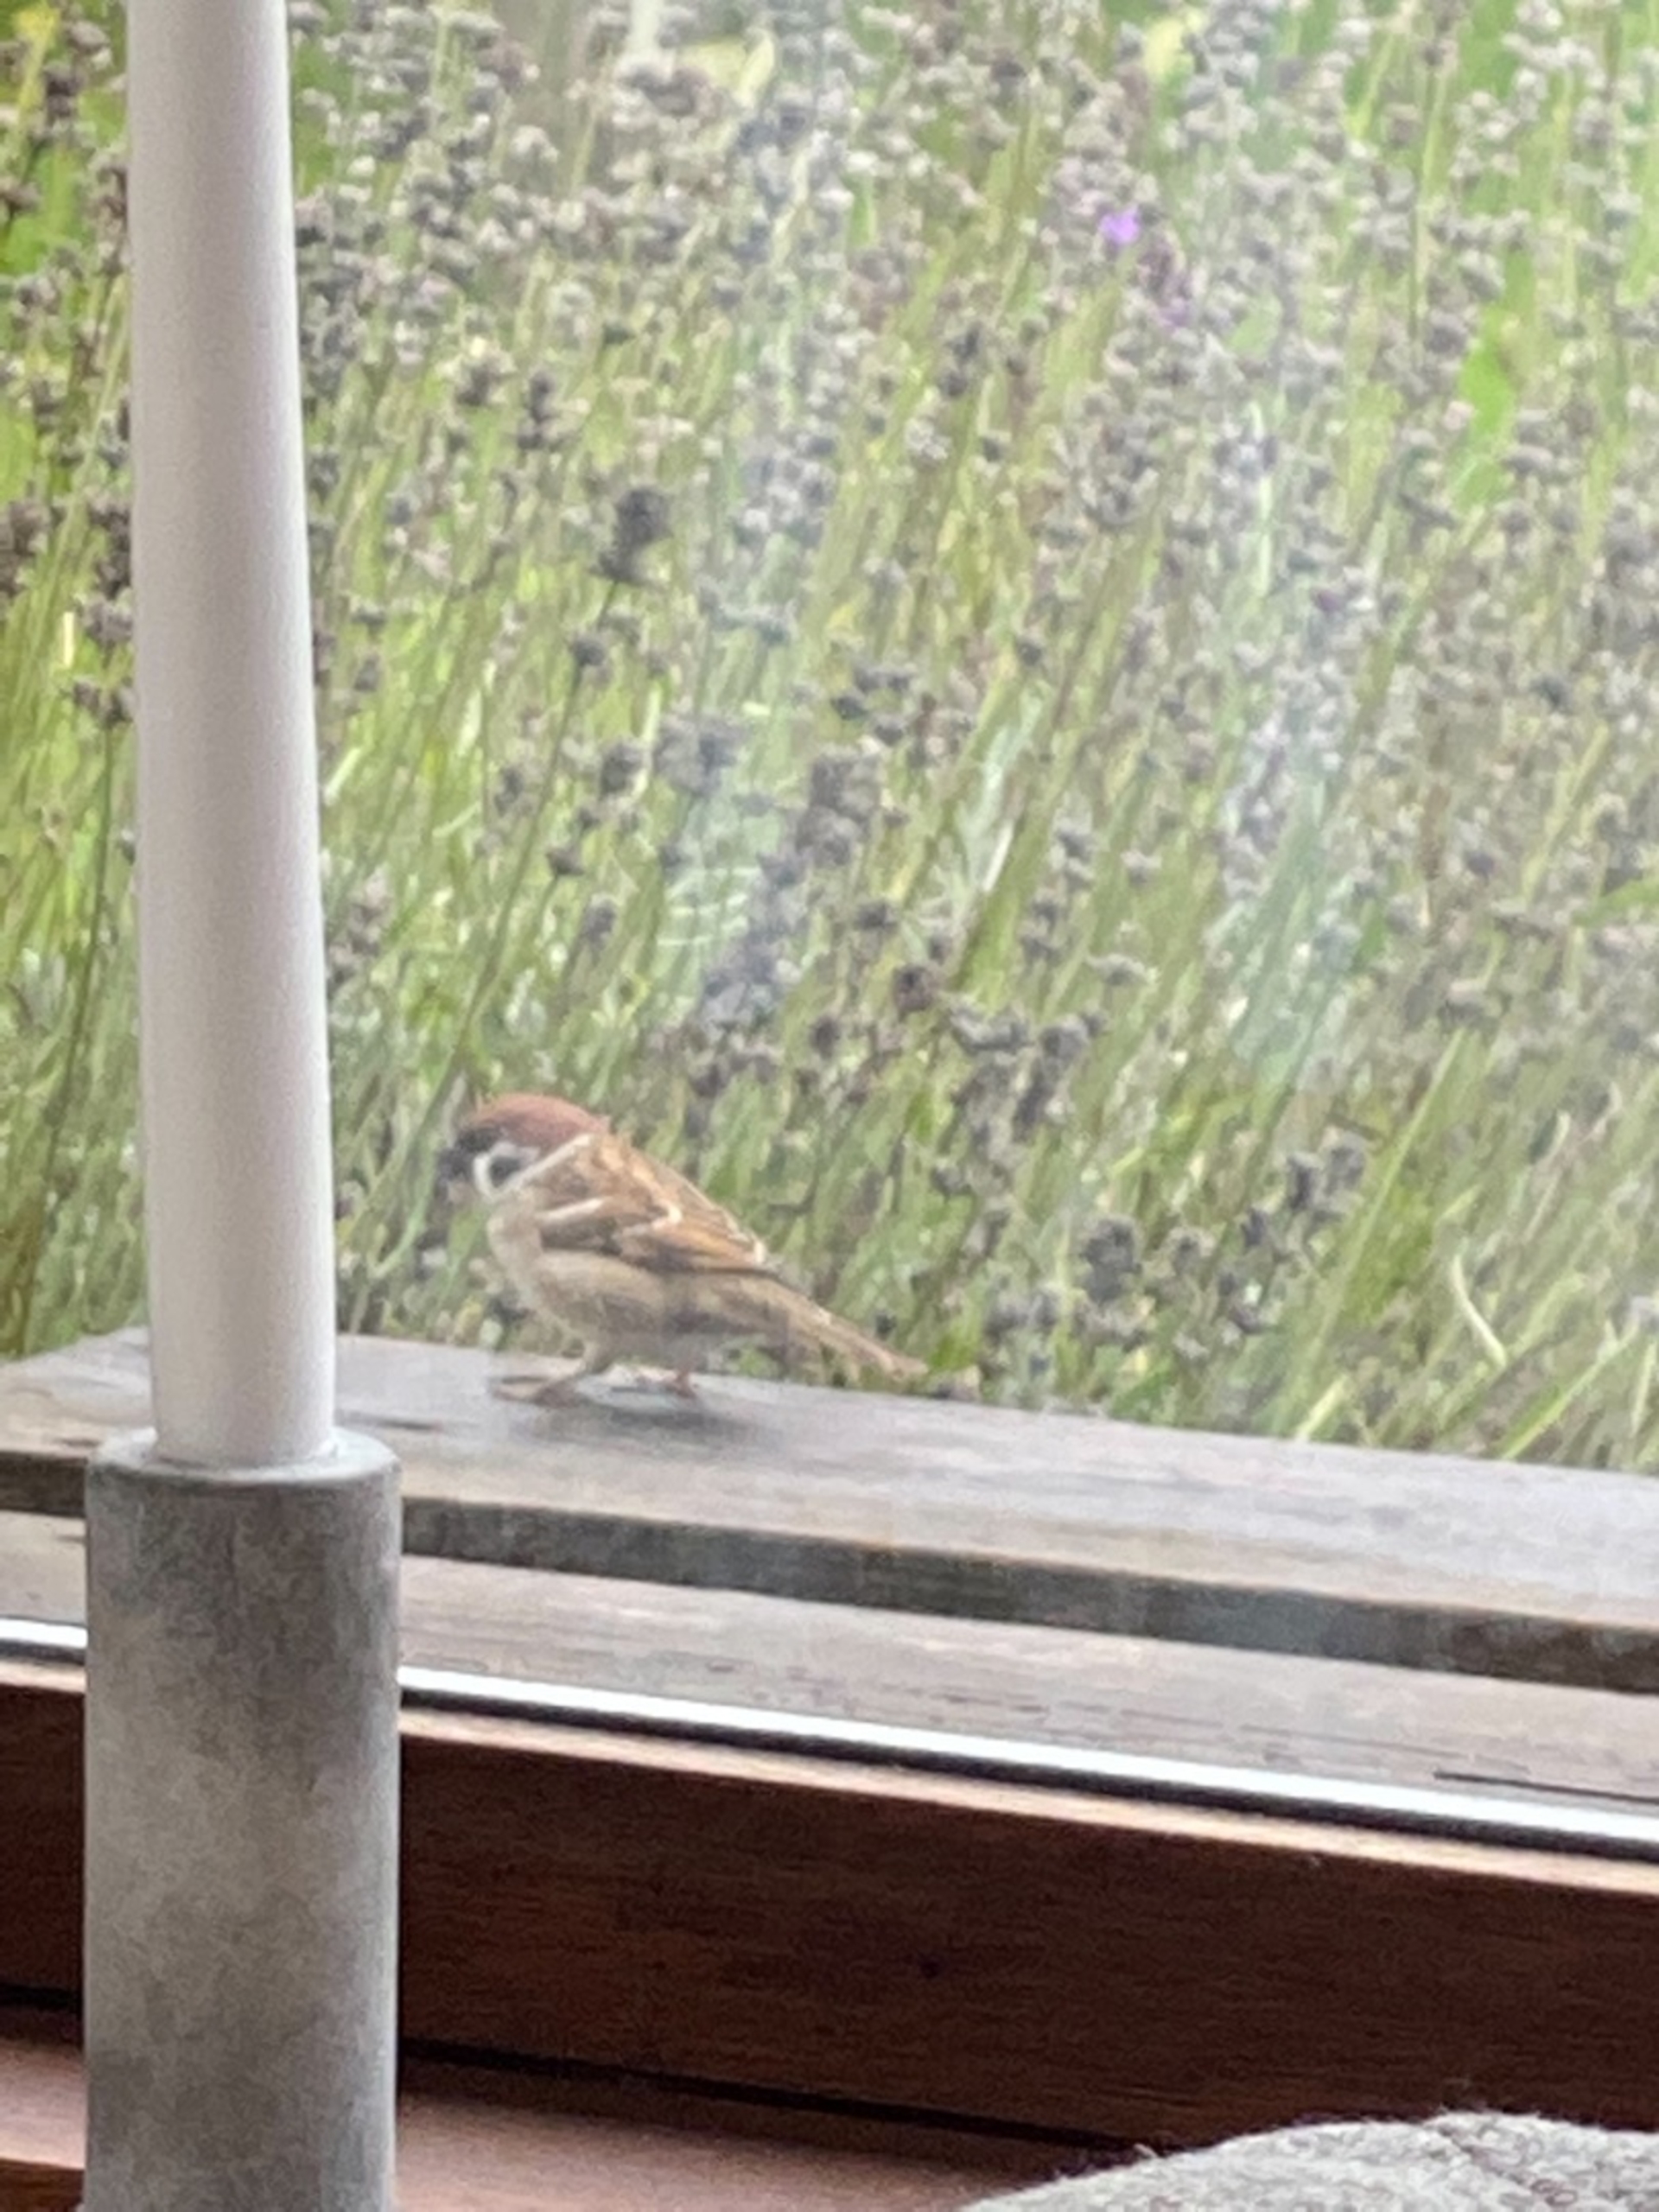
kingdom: Animalia
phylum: Chordata
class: Aves
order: Passeriformes
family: Passeridae
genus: Passer
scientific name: Passer montanus
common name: Skovspurv
